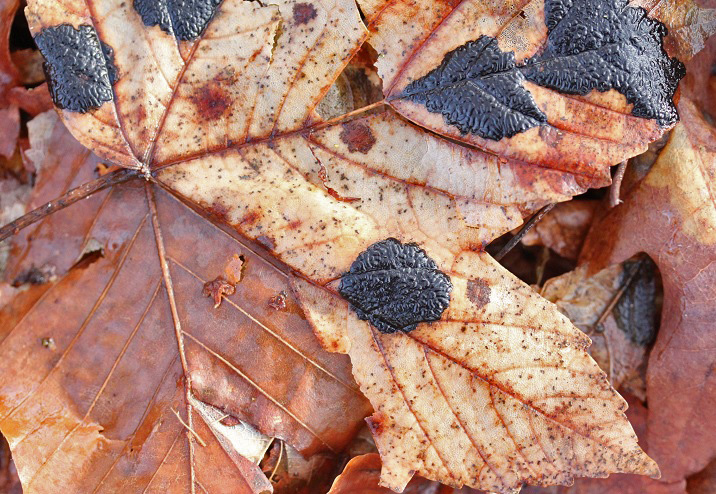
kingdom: Fungi
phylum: Ascomycota
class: Leotiomycetes
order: Rhytismatales
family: Rhytismataceae
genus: Rhytisma
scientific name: Rhytisma acerinum
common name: ahorn-rynkeplet
